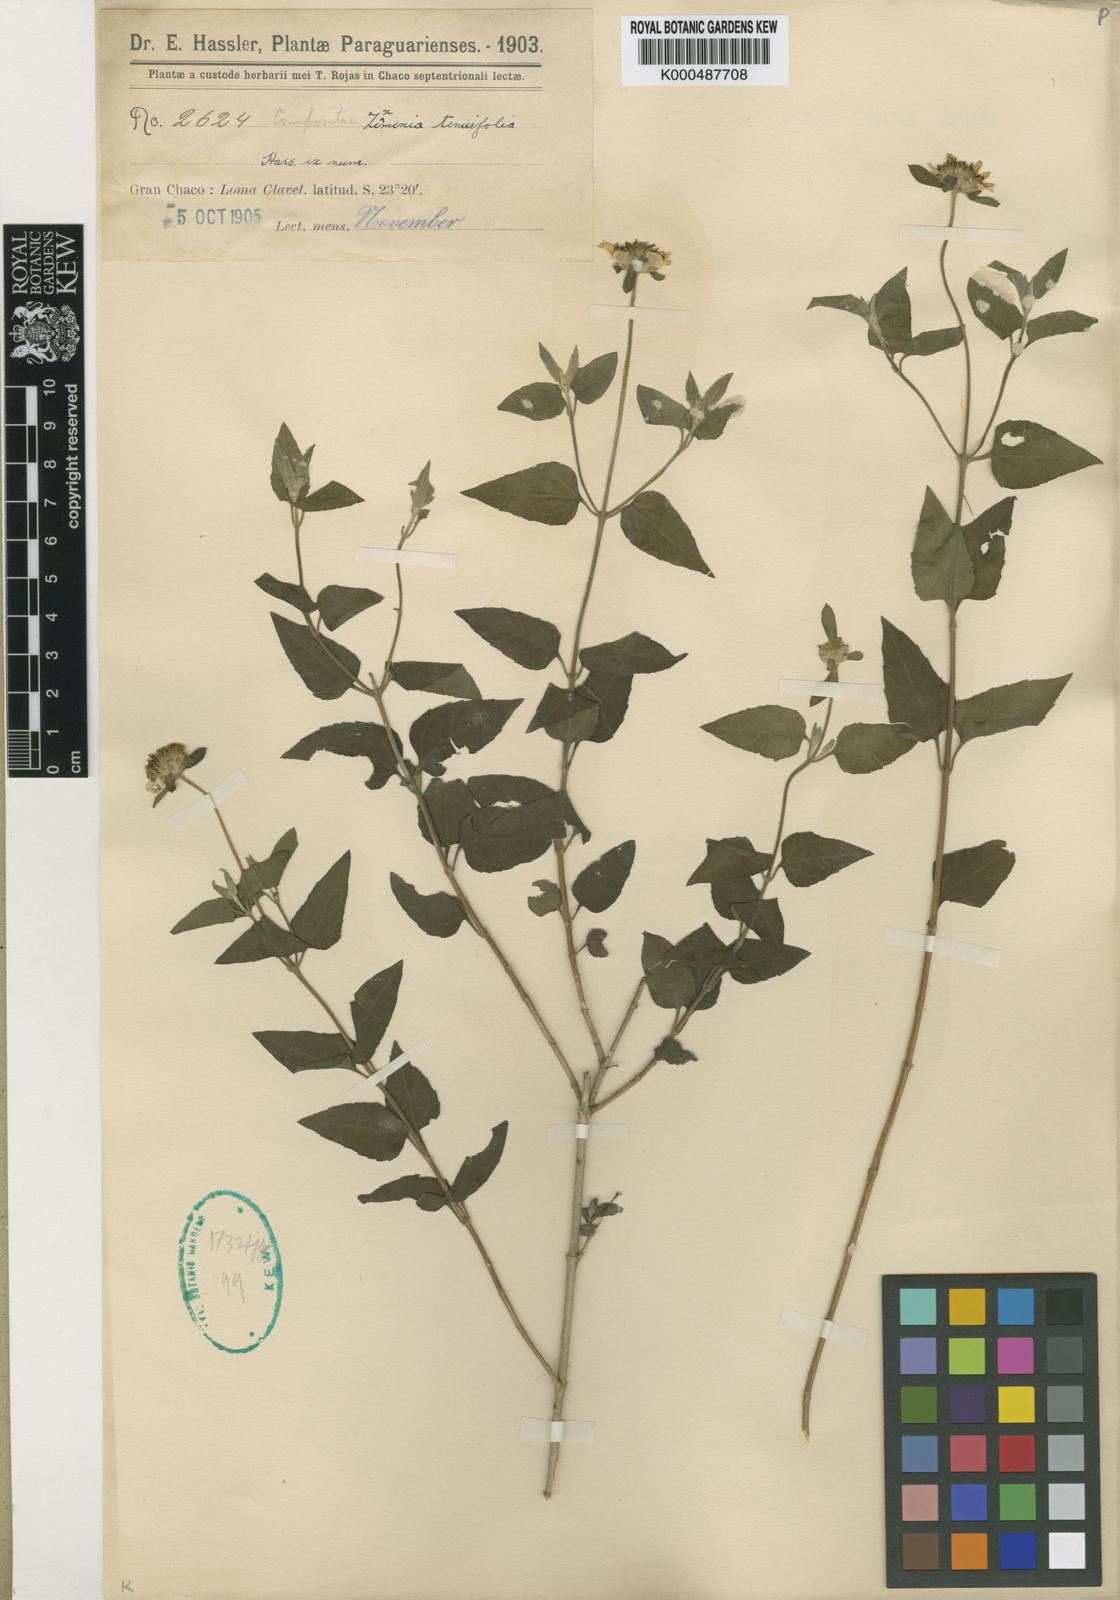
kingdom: Plantae
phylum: Tracheophyta
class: Magnoliopsida
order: Asterales
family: Asteraceae
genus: Dimerostemma
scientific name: Dimerostemma tenuifolium
